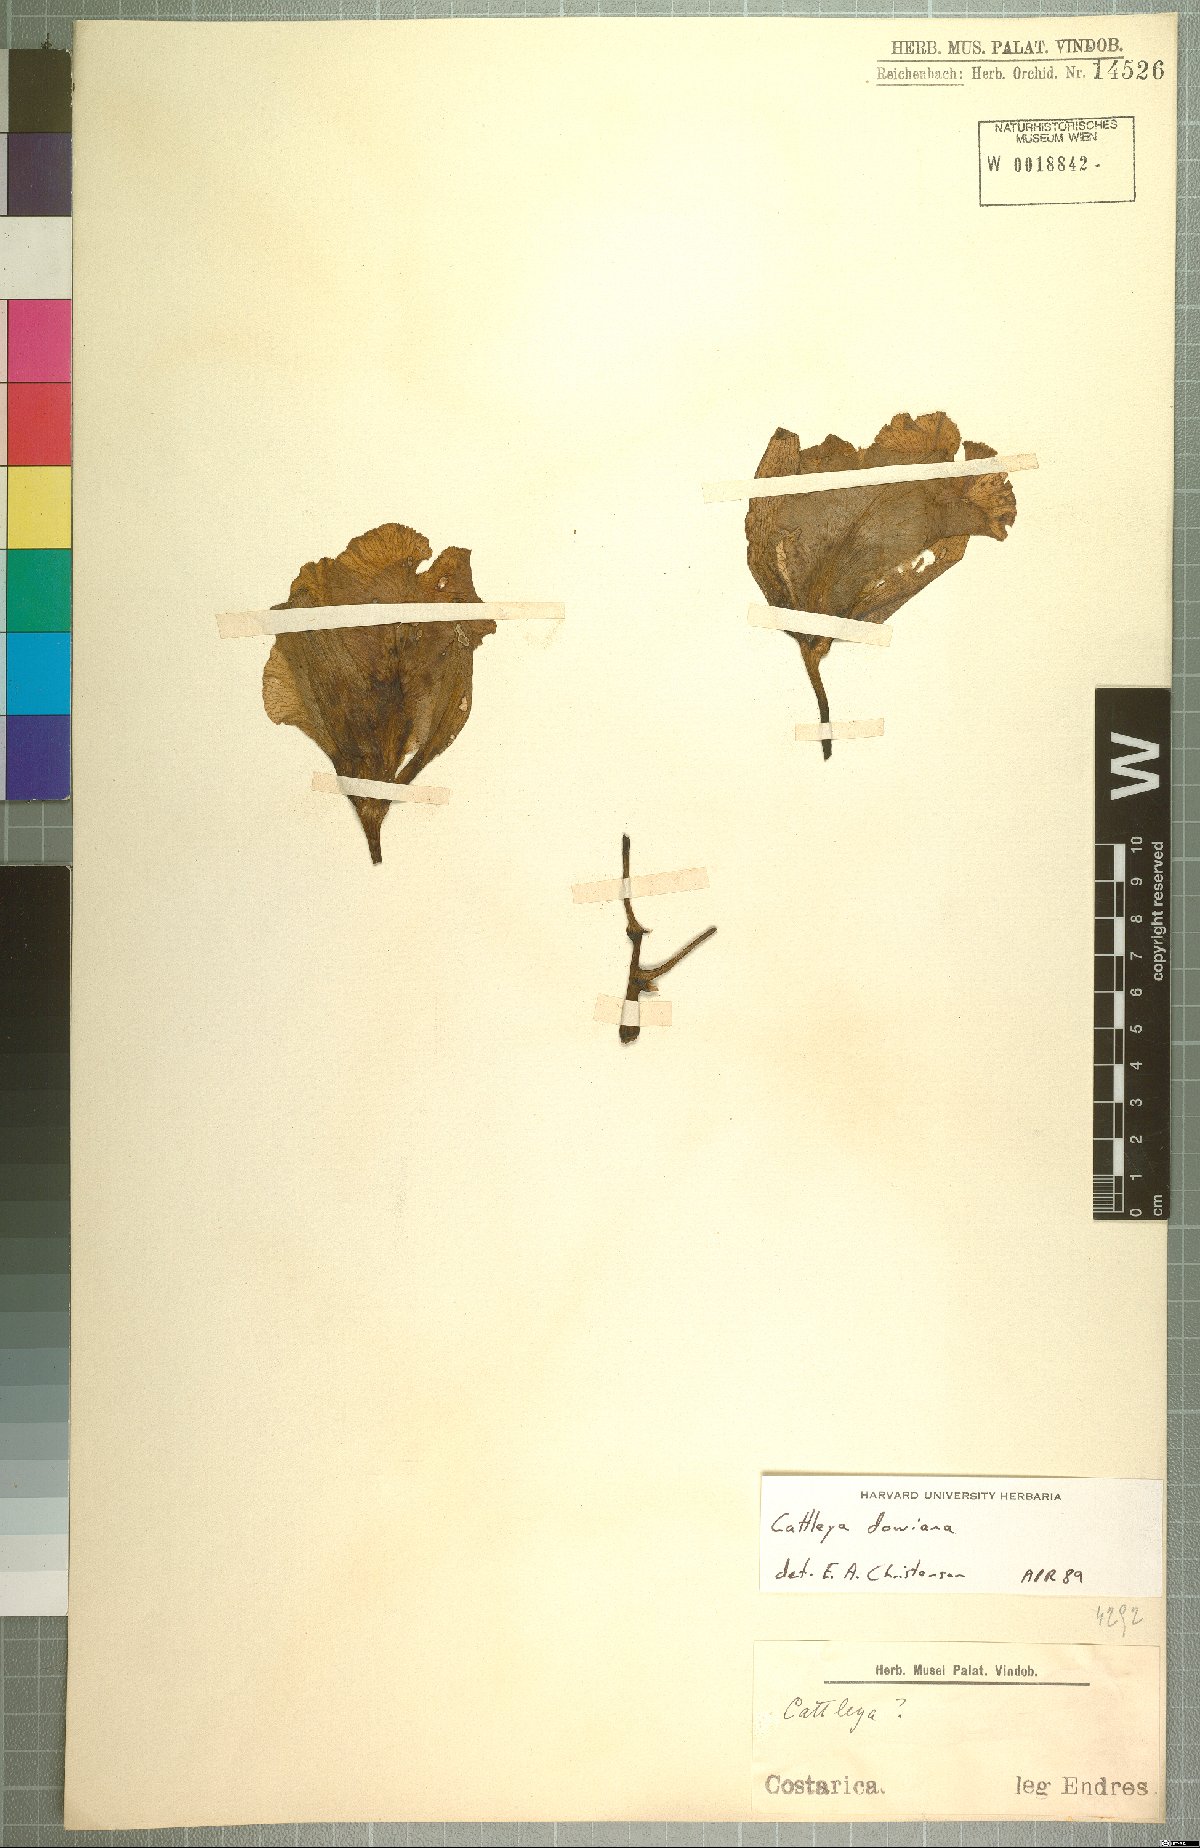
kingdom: Plantae
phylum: Tracheophyta
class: Liliopsida
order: Asparagales
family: Orchidaceae
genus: Cattleya
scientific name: Cattleya dowiana
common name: Queen cattleya
